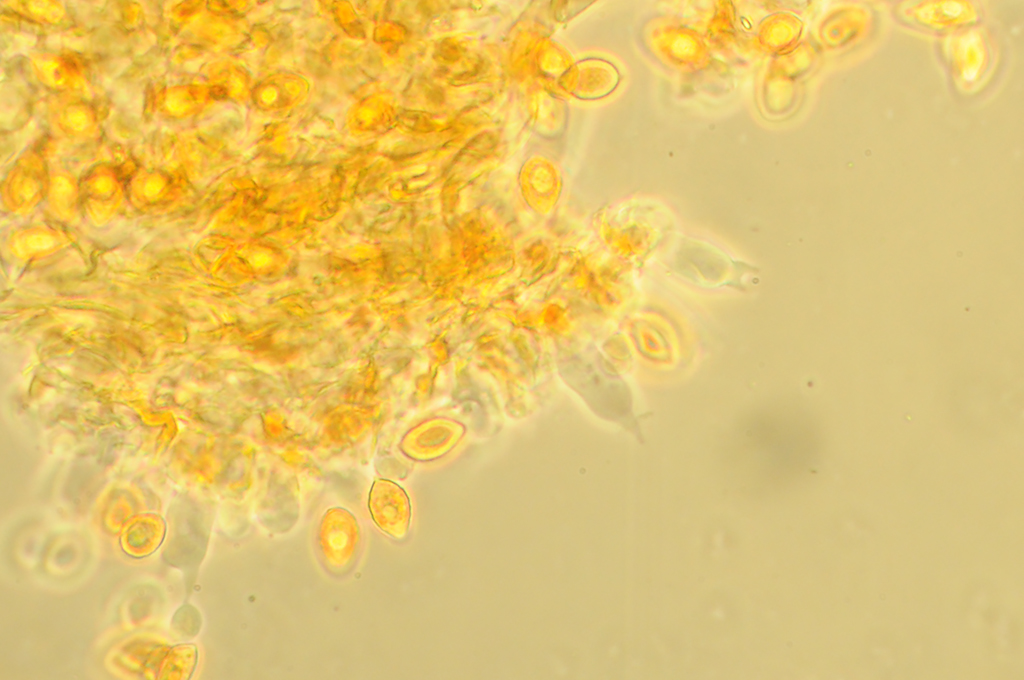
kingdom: Fungi
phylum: Basidiomycota
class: Agaricomycetes
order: Agaricales
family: Hymenogastraceae
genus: Galerina
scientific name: Galerina atkinsoniana
